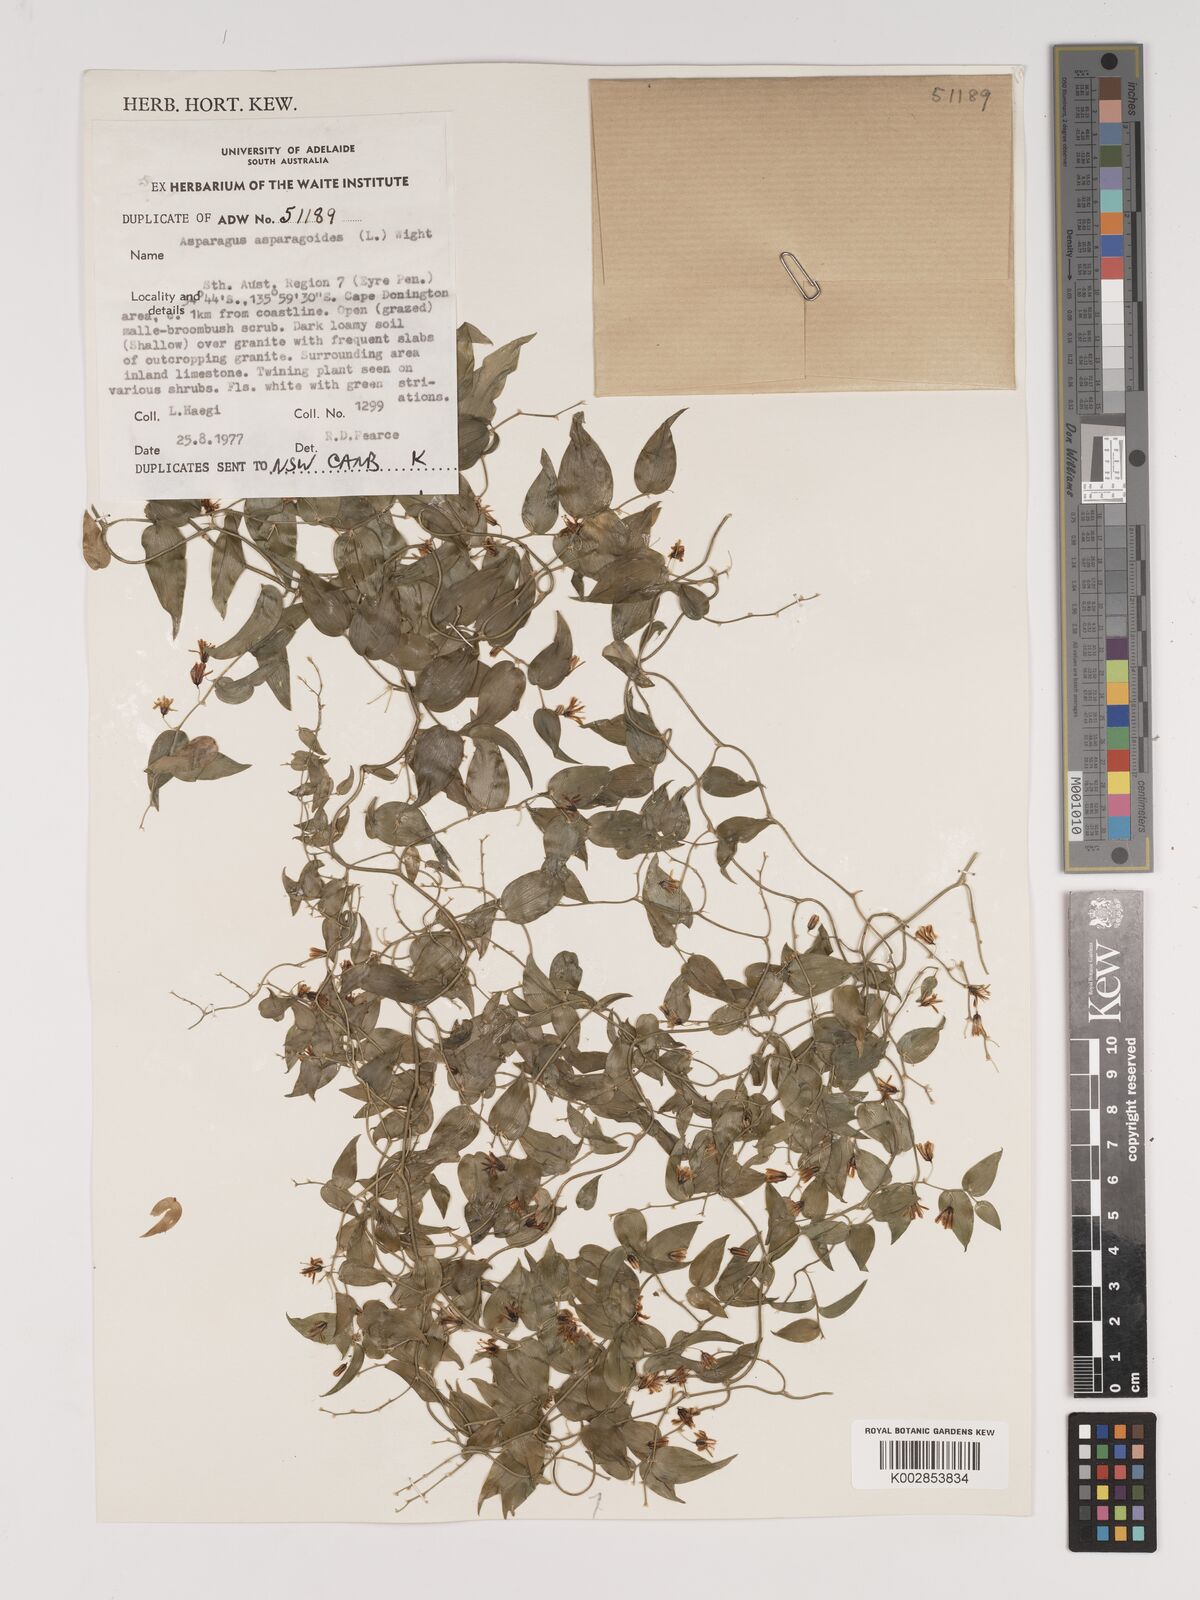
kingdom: Plantae
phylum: Tracheophyta
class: Liliopsida
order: Asparagales
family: Asparagaceae
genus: Asparagus
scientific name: Asparagus asparagoides
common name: African asparagus fern
